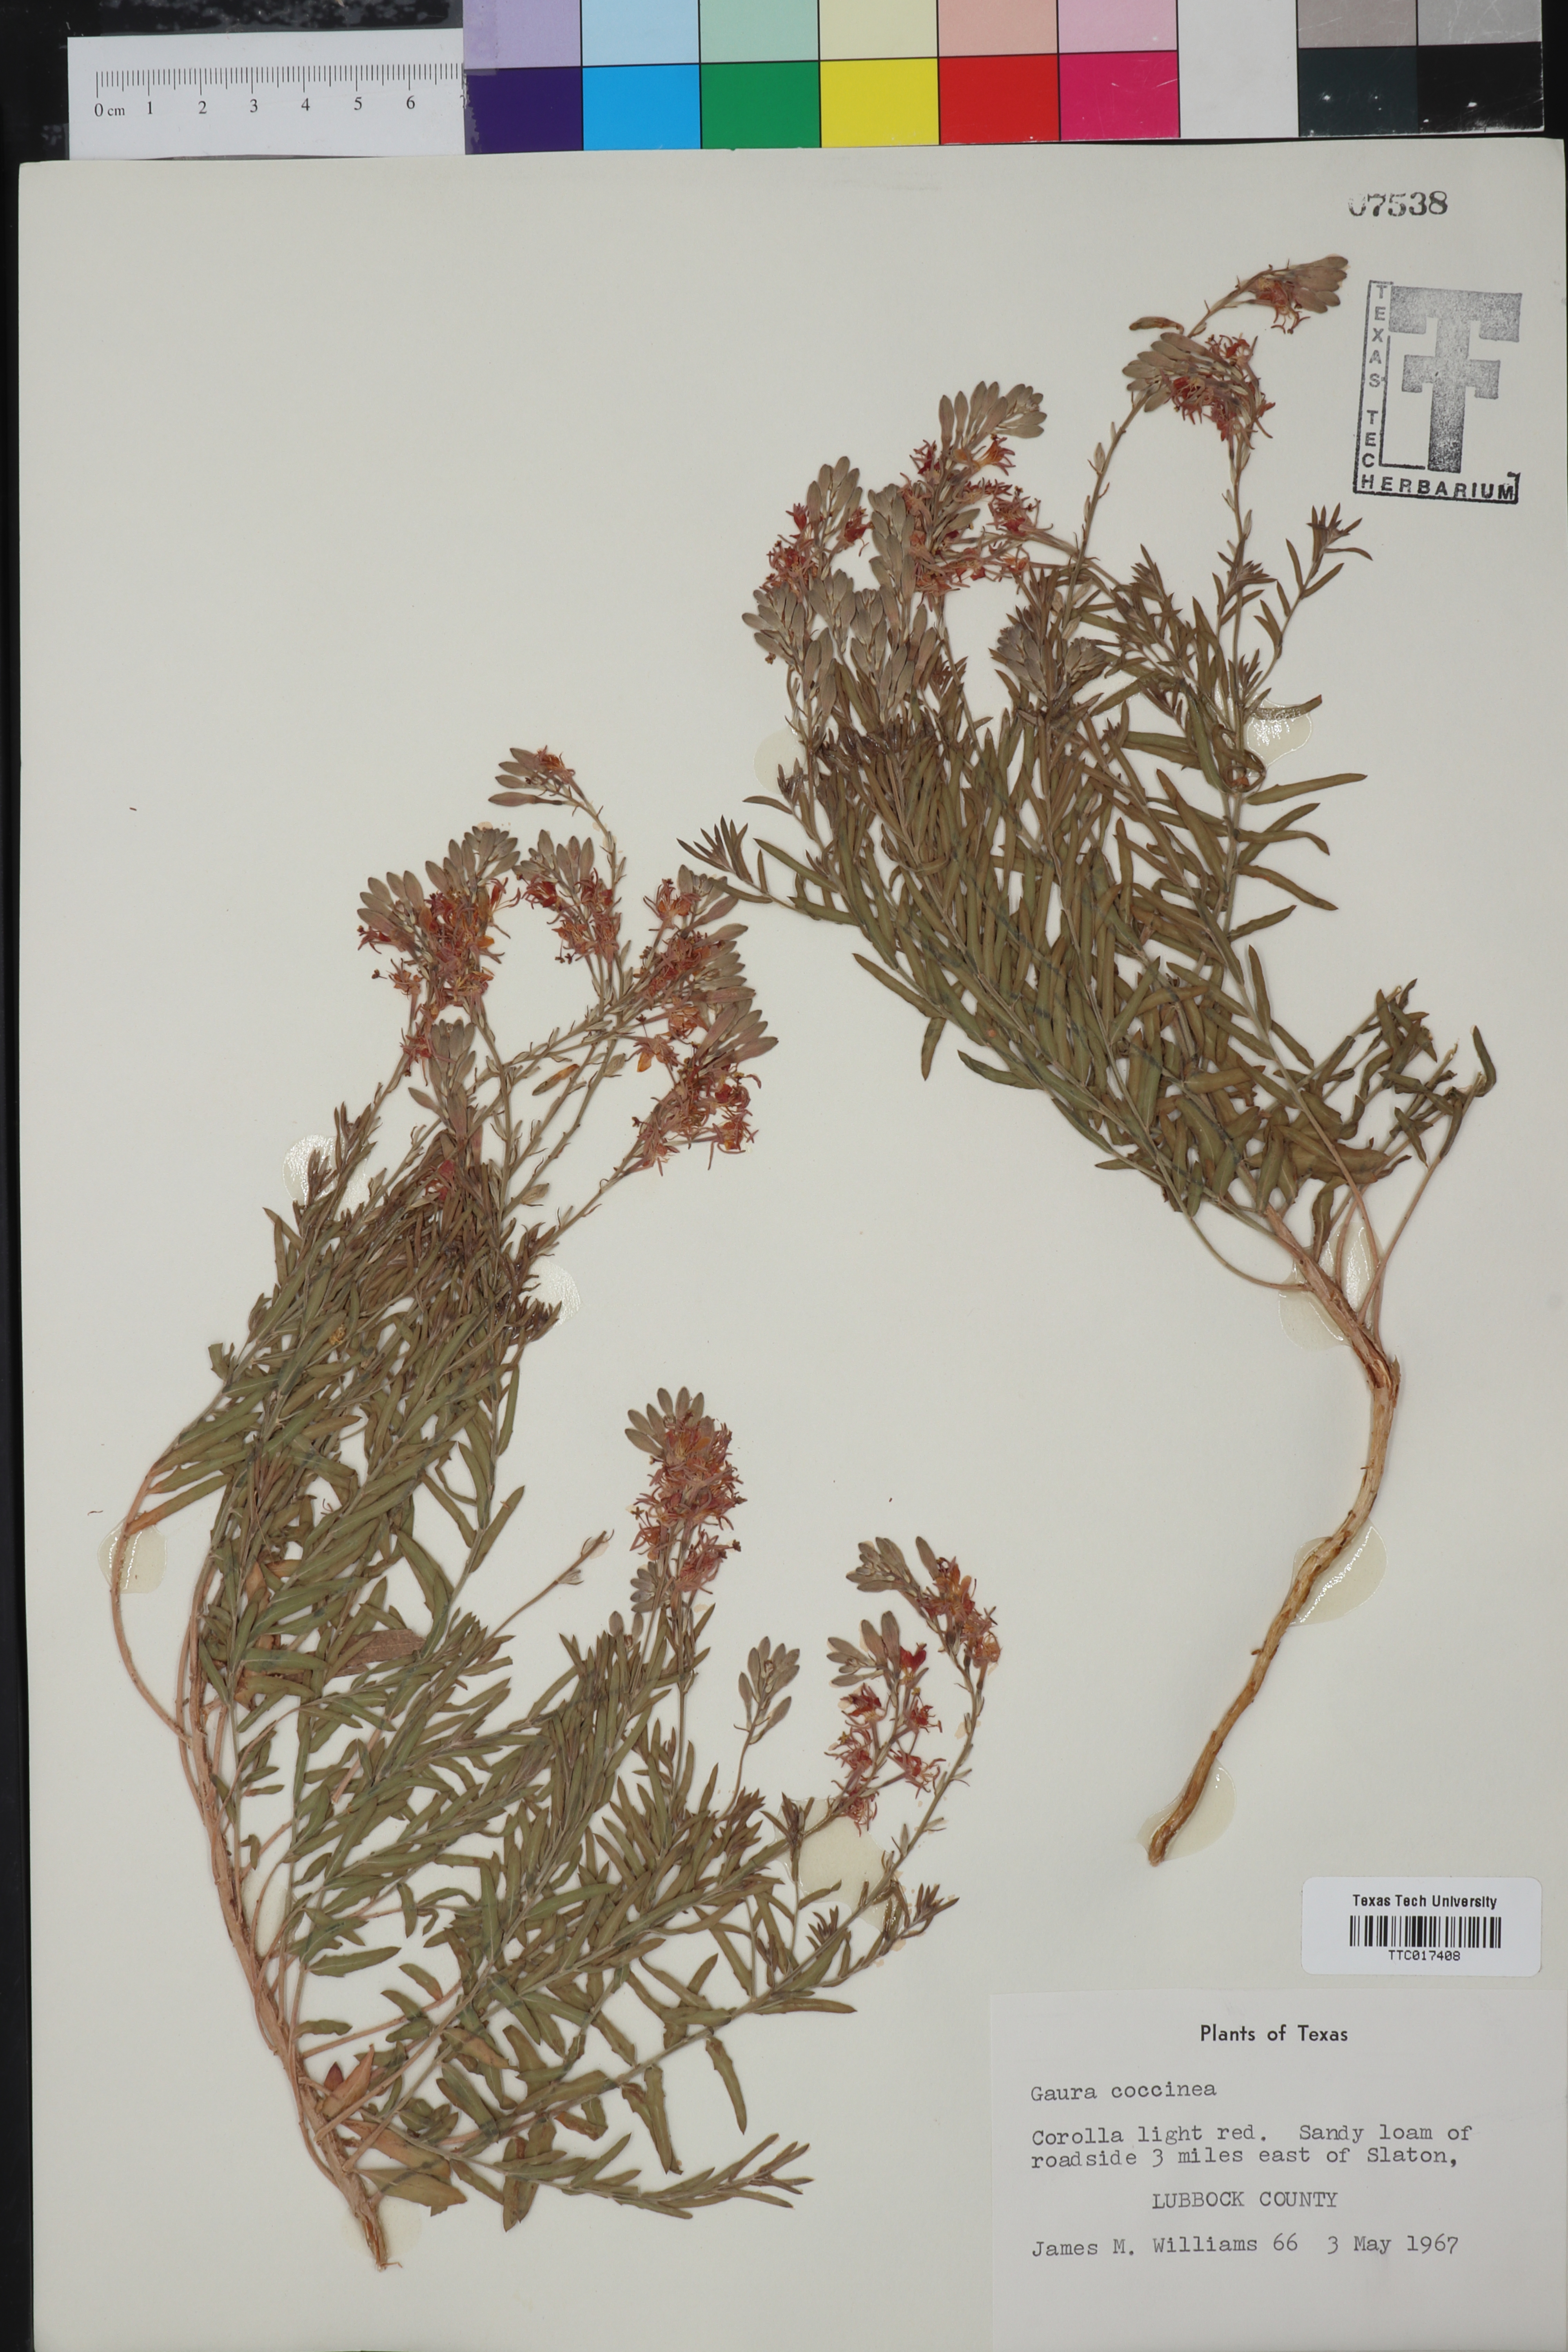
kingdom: Plantae
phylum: Tracheophyta
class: Magnoliopsida
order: Myrtales
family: Onagraceae
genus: Oenothera
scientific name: Oenothera suffrutescens
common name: Scarlet beeblossom
